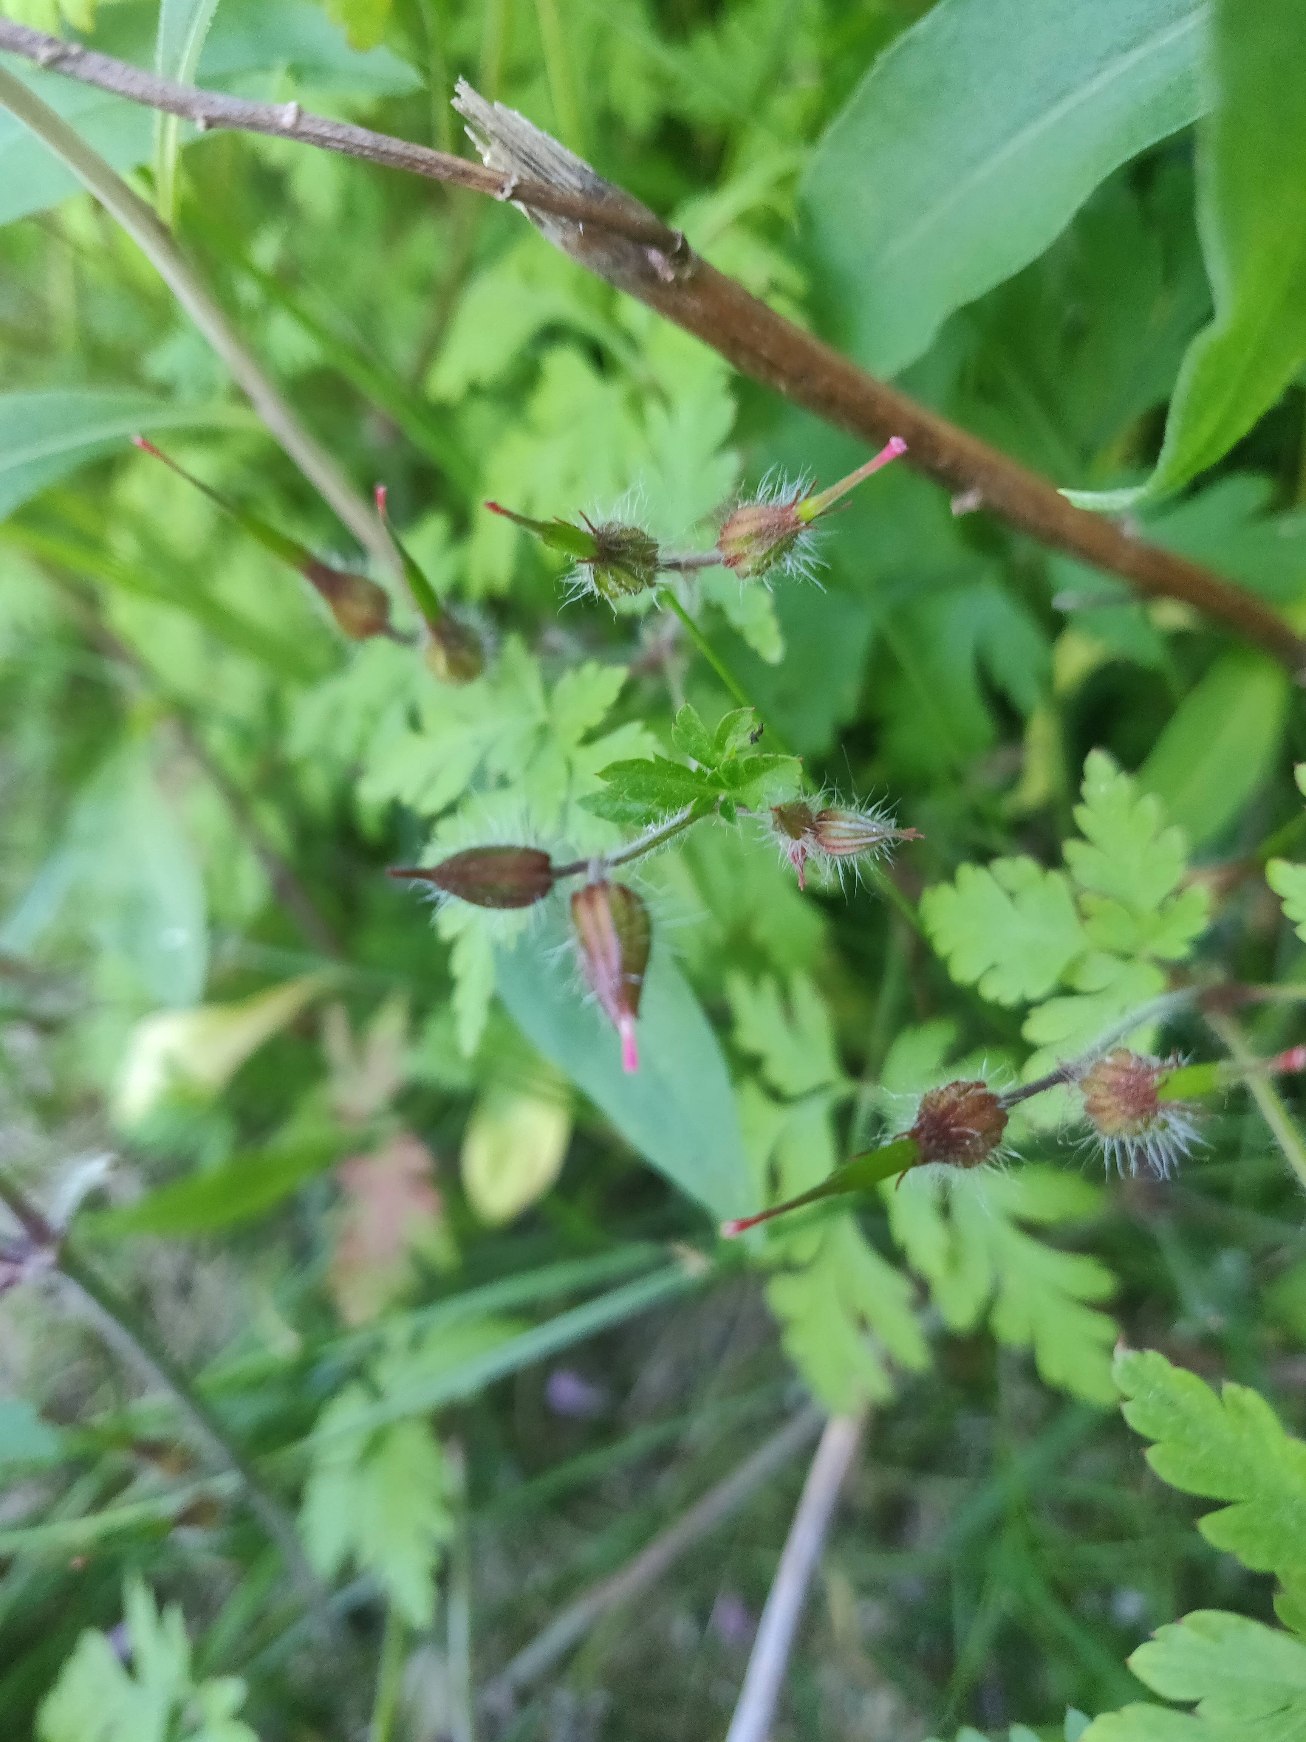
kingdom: Plantae
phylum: Tracheophyta
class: Magnoliopsida
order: Geraniales
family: Geraniaceae
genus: Geranium
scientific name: Geranium robertianum
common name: Stinkende storkenæb
